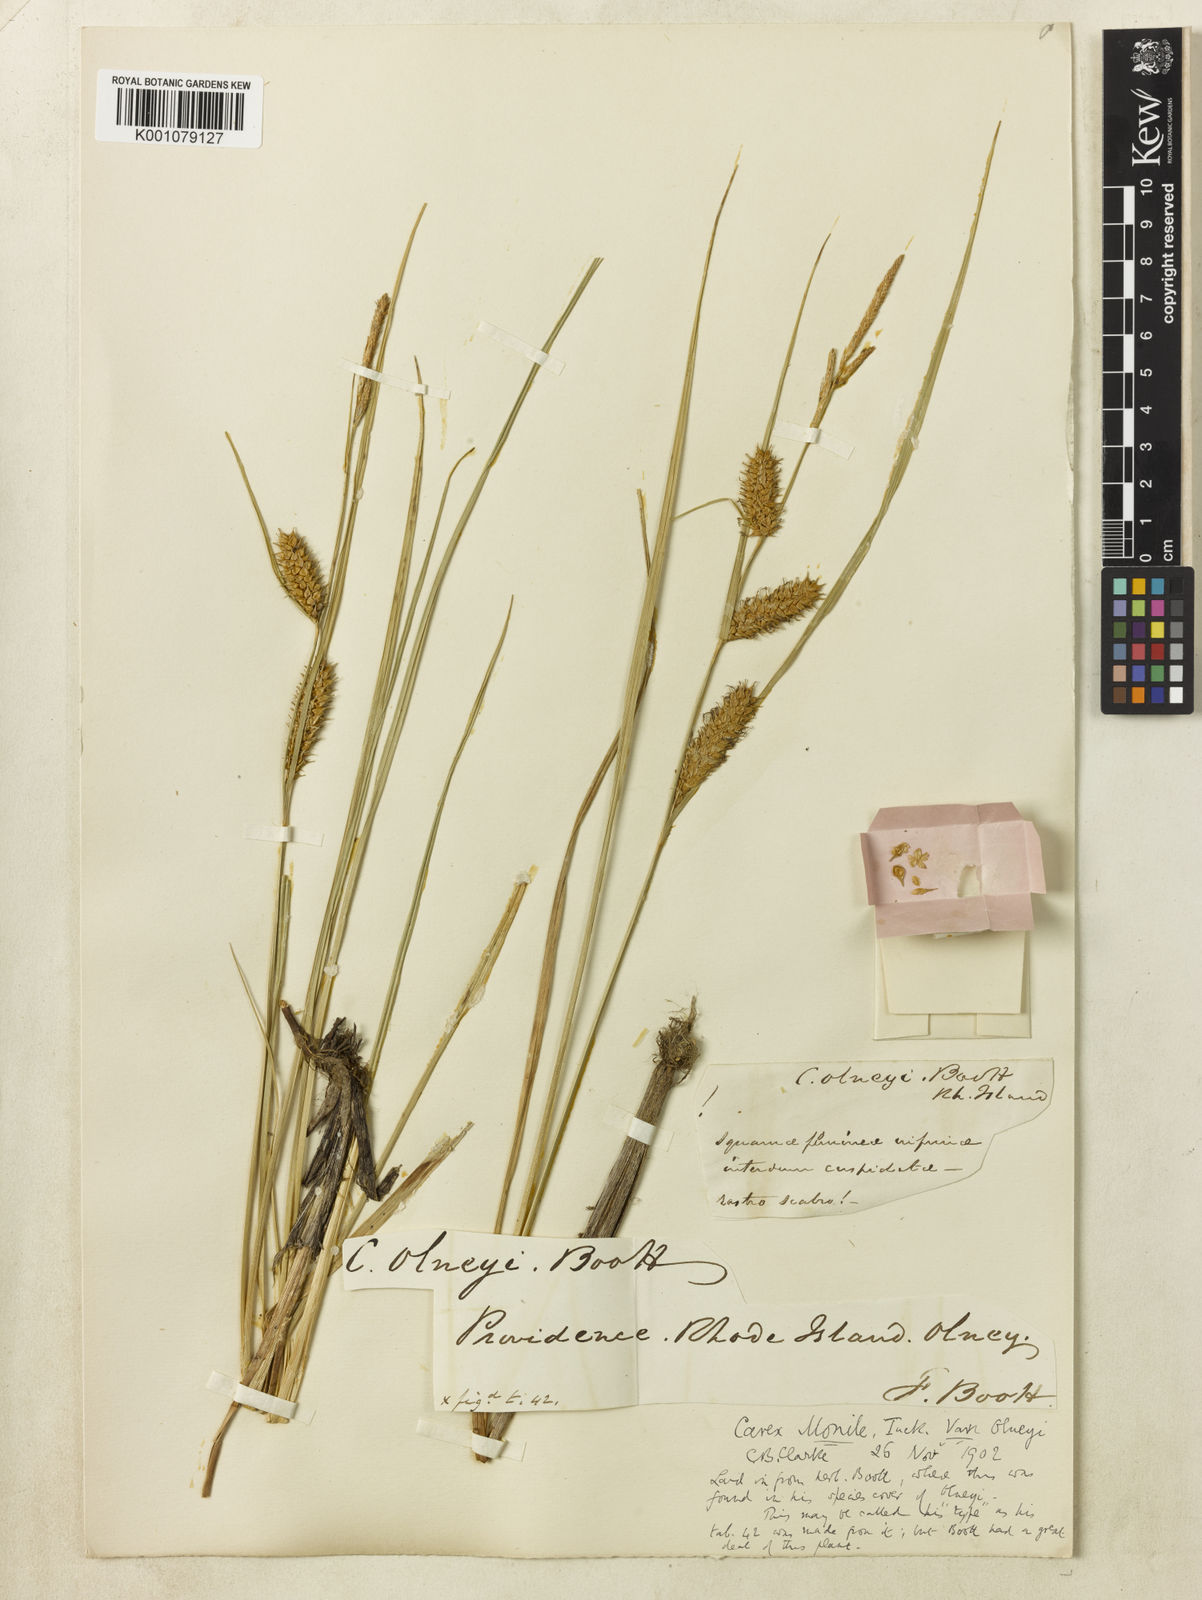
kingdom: Plantae
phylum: Tracheophyta
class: Liliopsida
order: Poales
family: Cyperaceae
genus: Carex
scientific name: Carex
